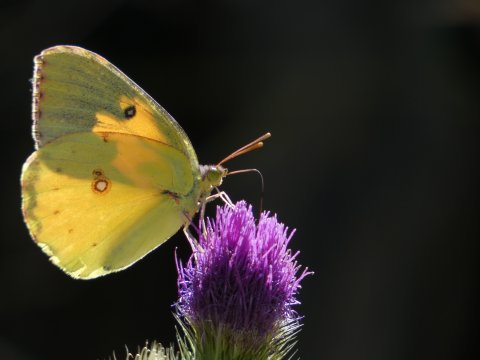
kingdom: Animalia
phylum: Arthropoda
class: Insecta
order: Lepidoptera
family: Pieridae
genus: Zerene
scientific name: Zerene eurydice
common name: California Dogface
